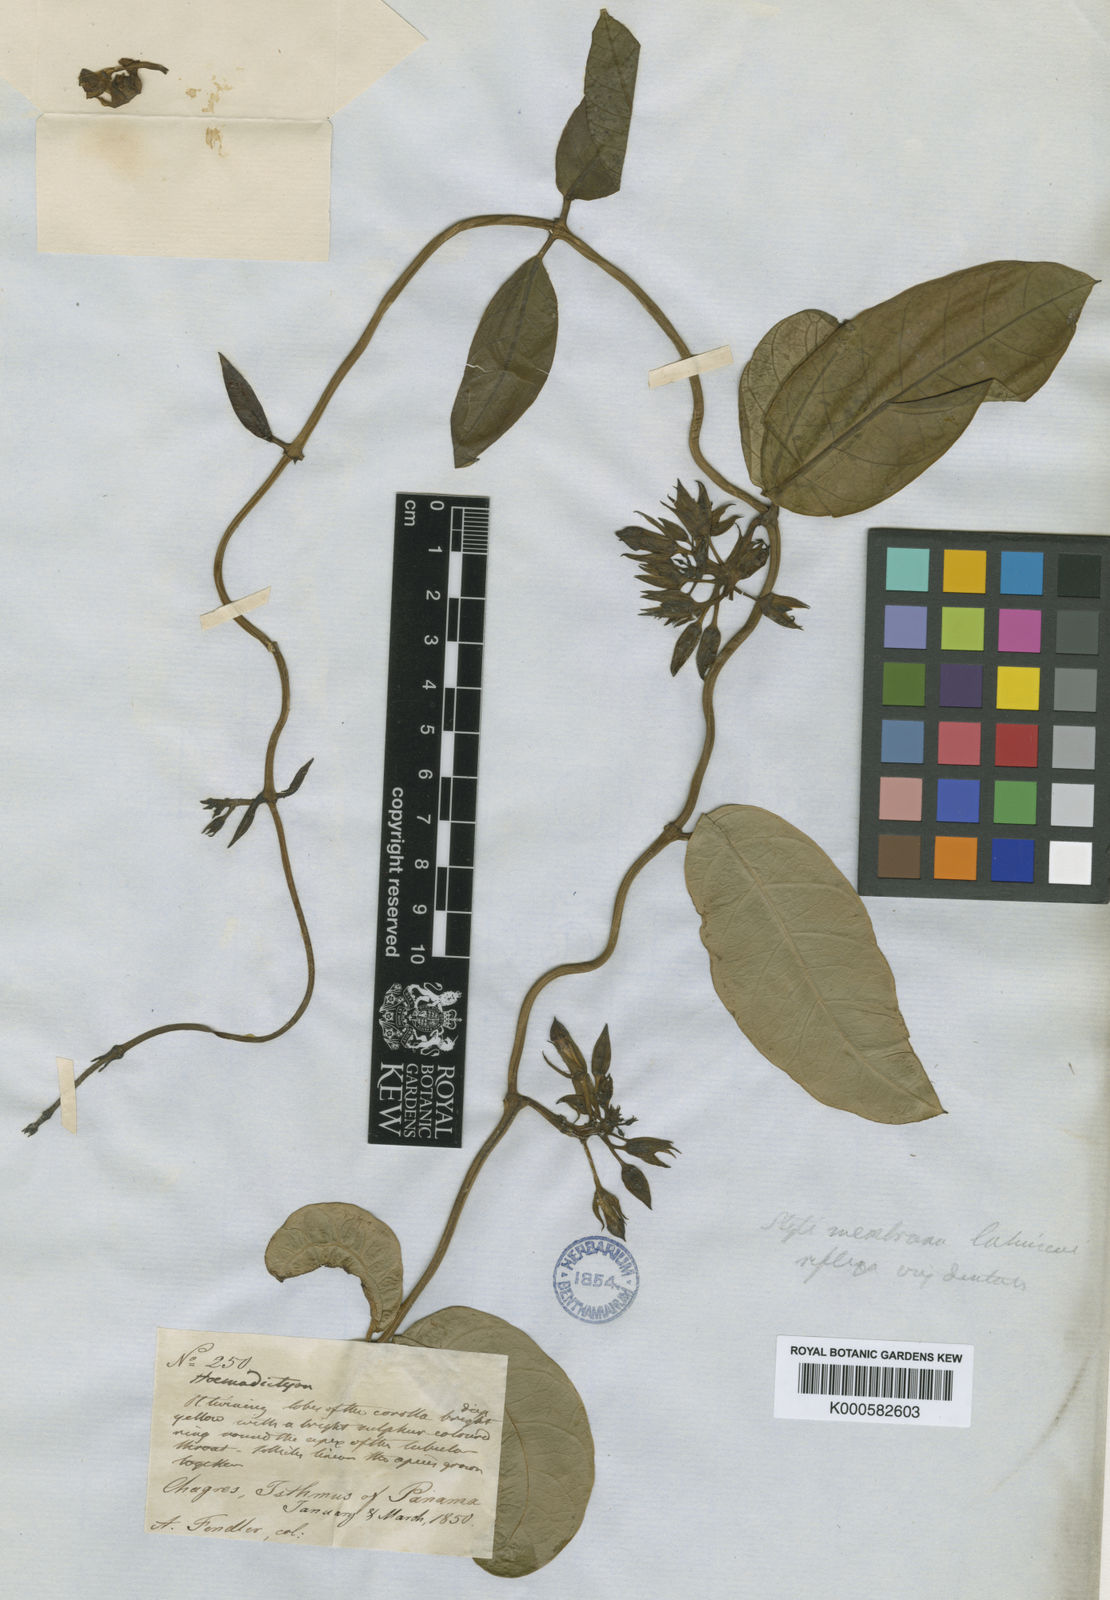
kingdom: Plantae
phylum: Tracheophyta
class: Magnoliopsida
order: Gentianales
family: Apocynaceae
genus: Prestonia
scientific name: Prestonia portobellensis
